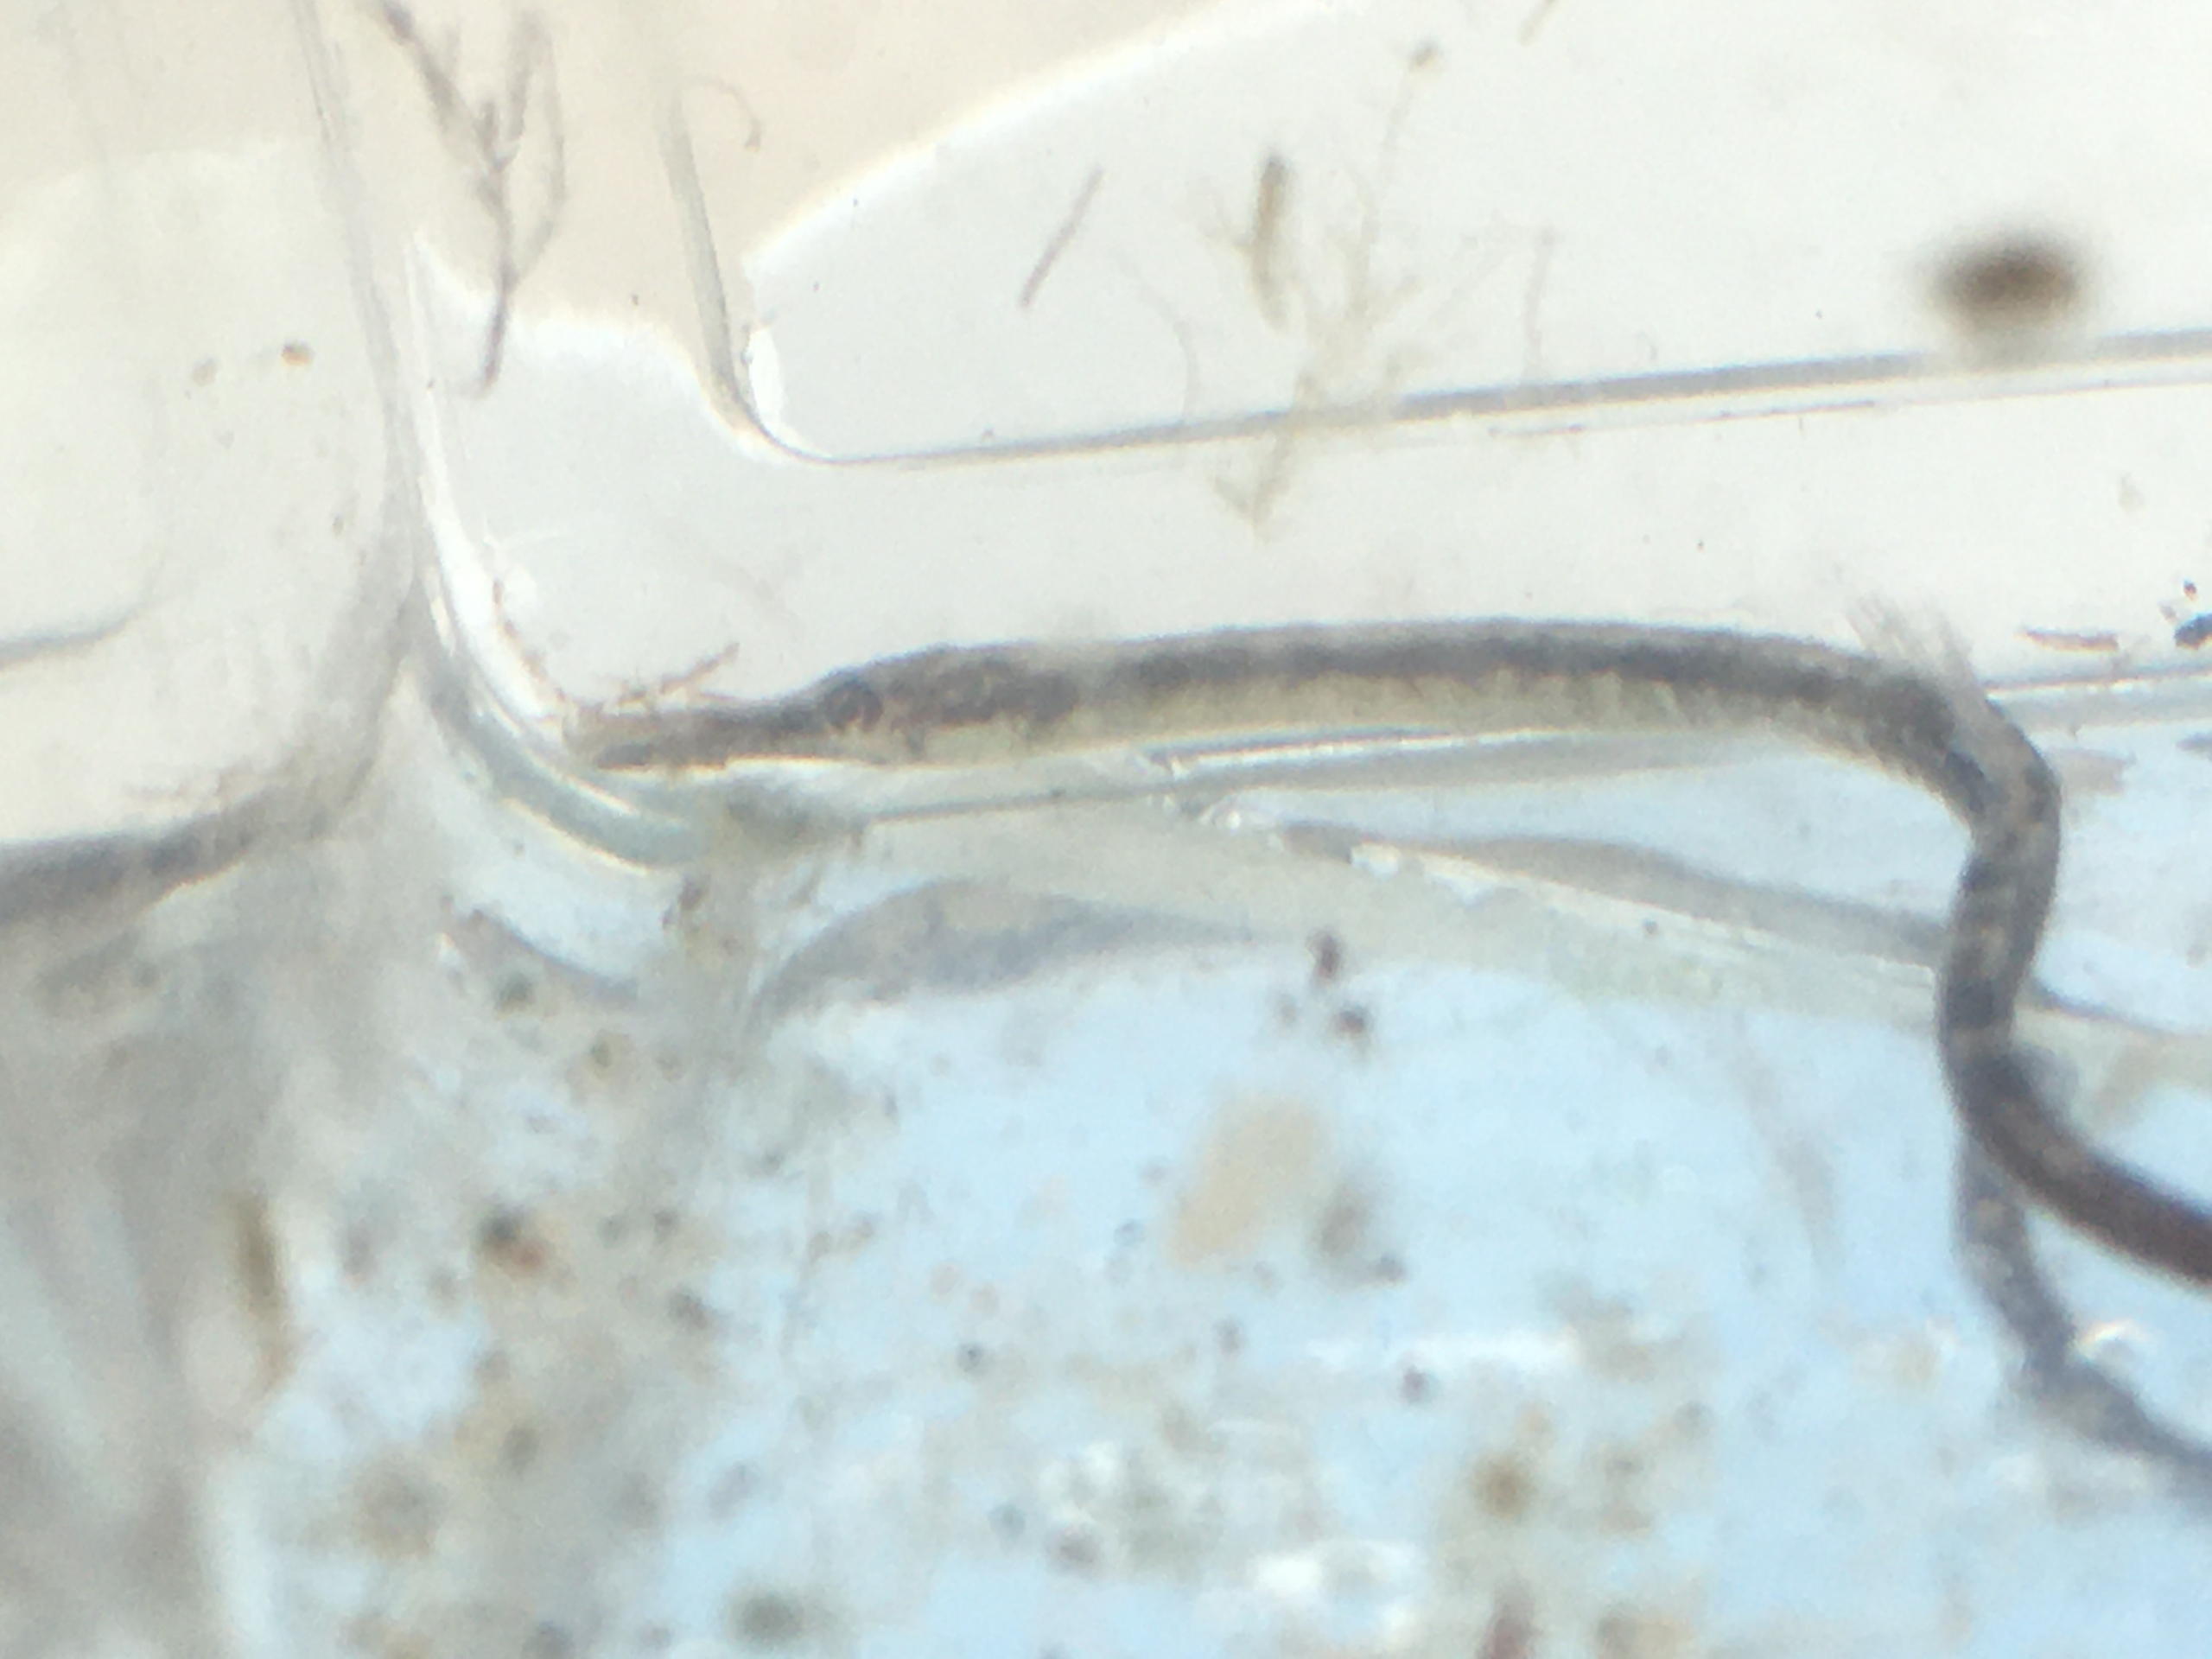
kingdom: Animalia
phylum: Chordata
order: Syngnathiformes
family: Syngnathidae
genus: Syngnathus
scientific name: Syngnathus rostellatus
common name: Lille tangnål
